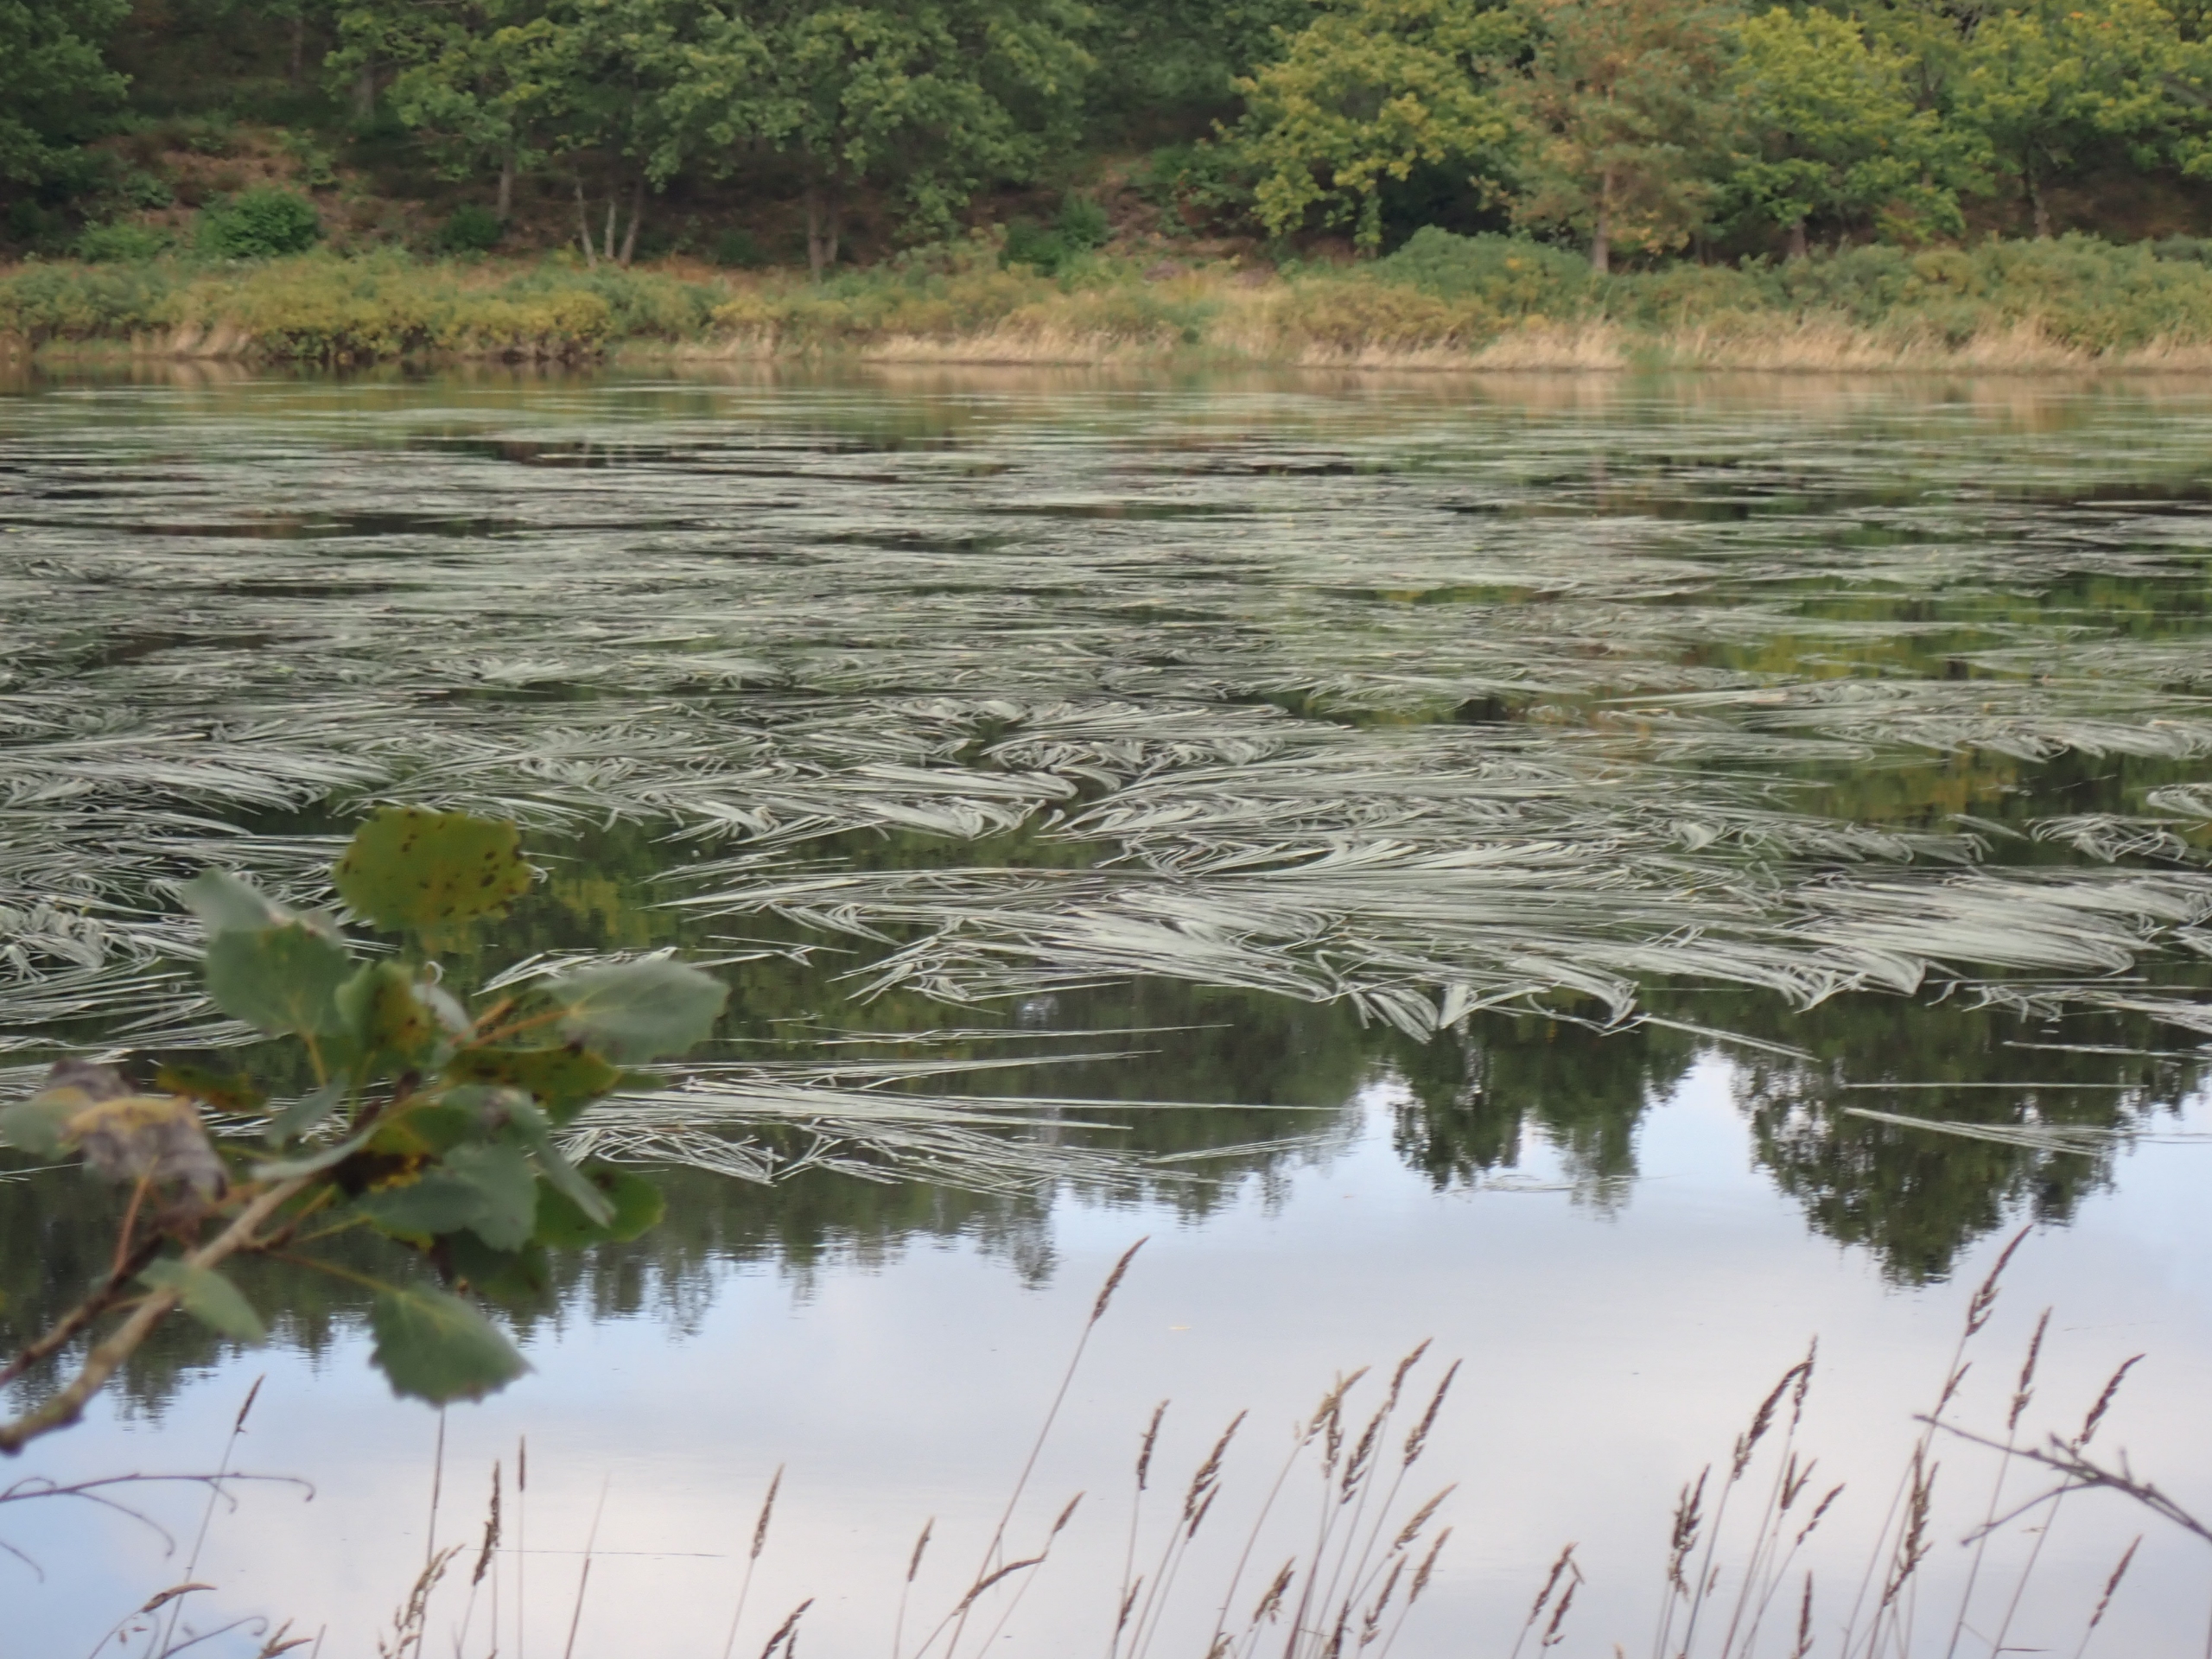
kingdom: Plantae
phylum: Tracheophyta
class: Liliopsida
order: Poales
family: Typhaceae
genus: Sparganium
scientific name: Sparganium angustifolium
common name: Smalbladet pindsvineknop
